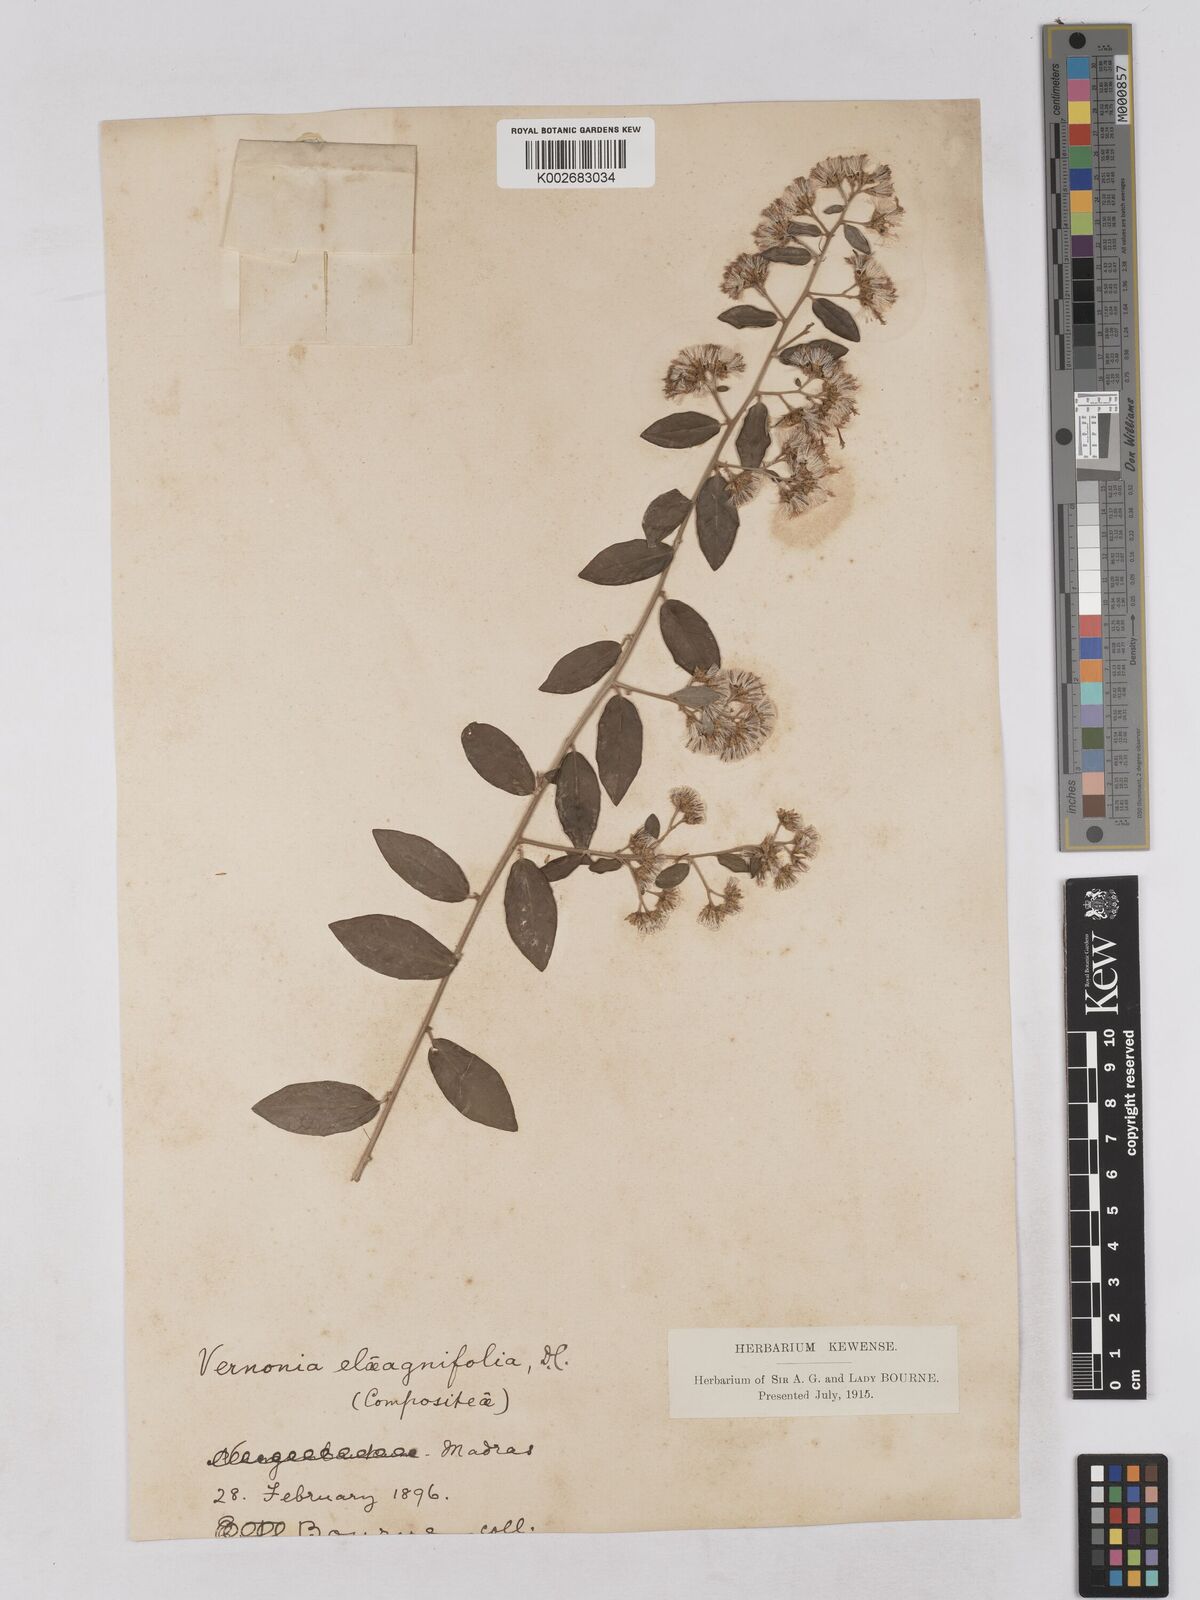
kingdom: Plantae
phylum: Tracheophyta
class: Magnoliopsida
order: Asterales
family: Asteraceae
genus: Tarlmounia
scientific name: Tarlmounia elliptica
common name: Kheua sa lot
